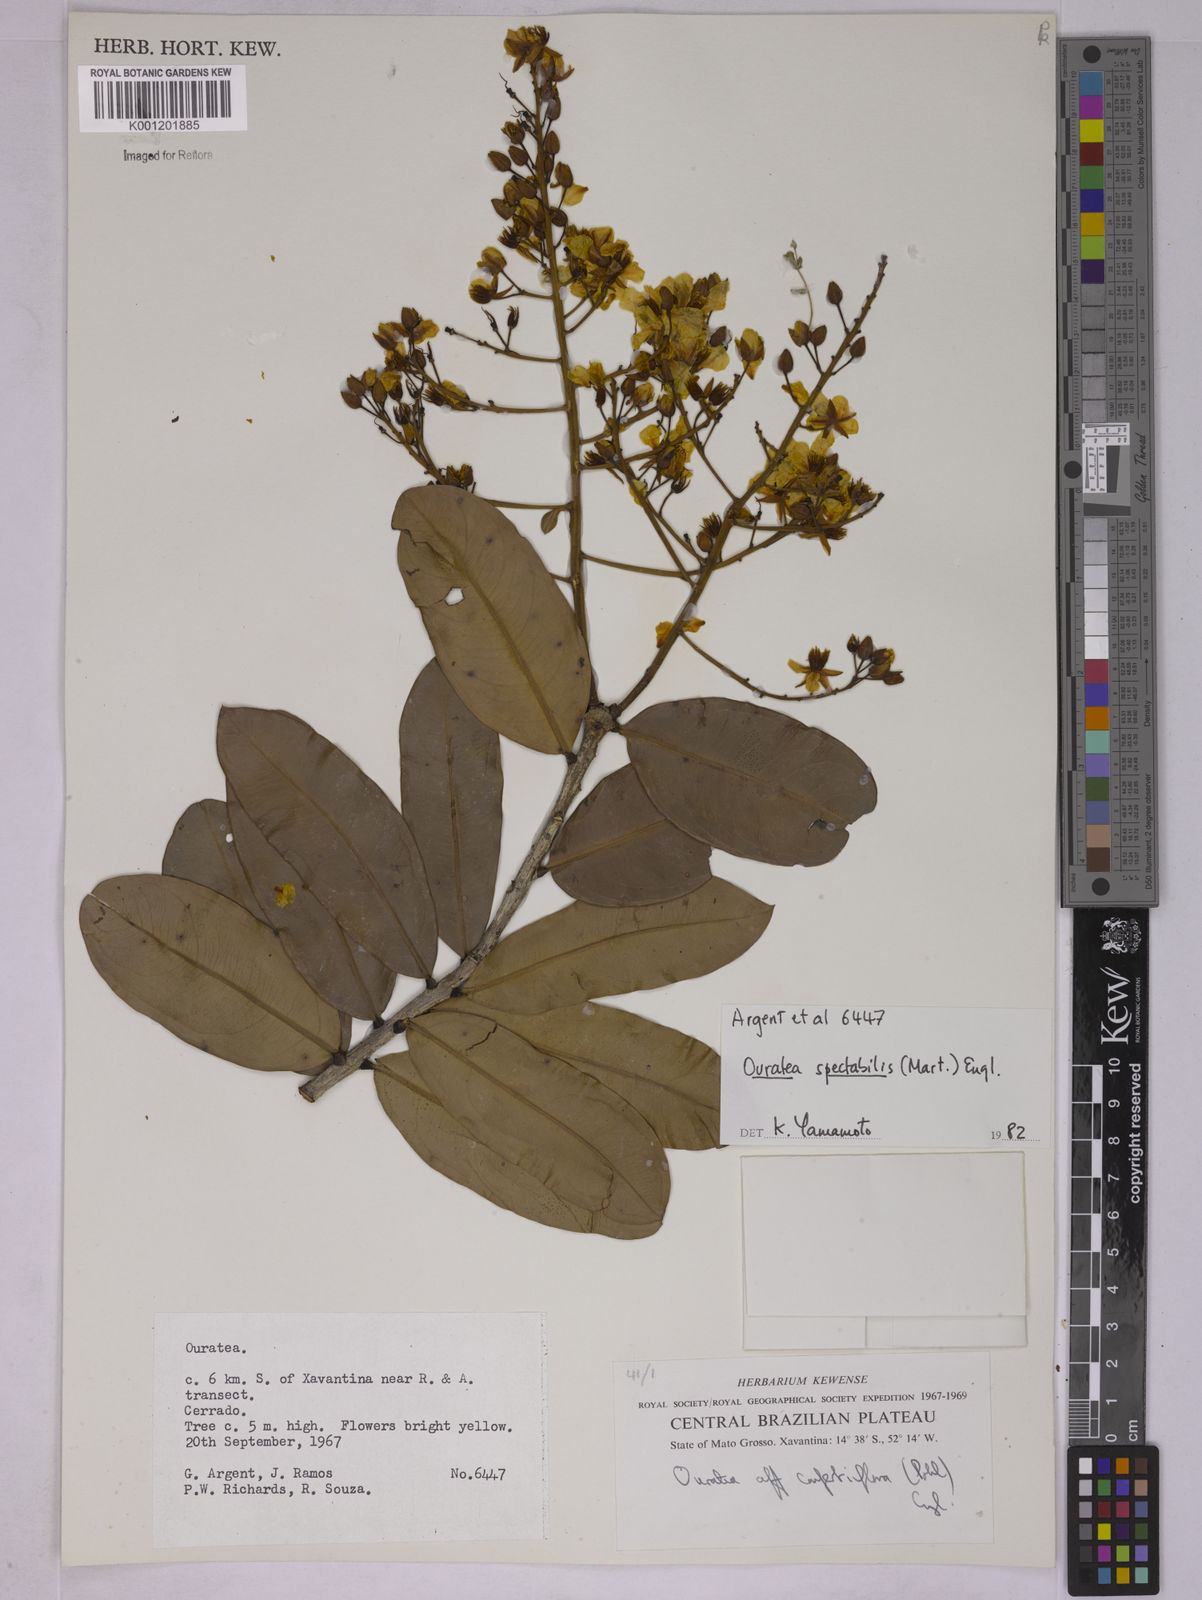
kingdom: Plantae
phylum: Tracheophyta
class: Magnoliopsida
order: Malpighiales
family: Ochnaceae
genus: Ouratea
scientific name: Ouratea spectabilis
